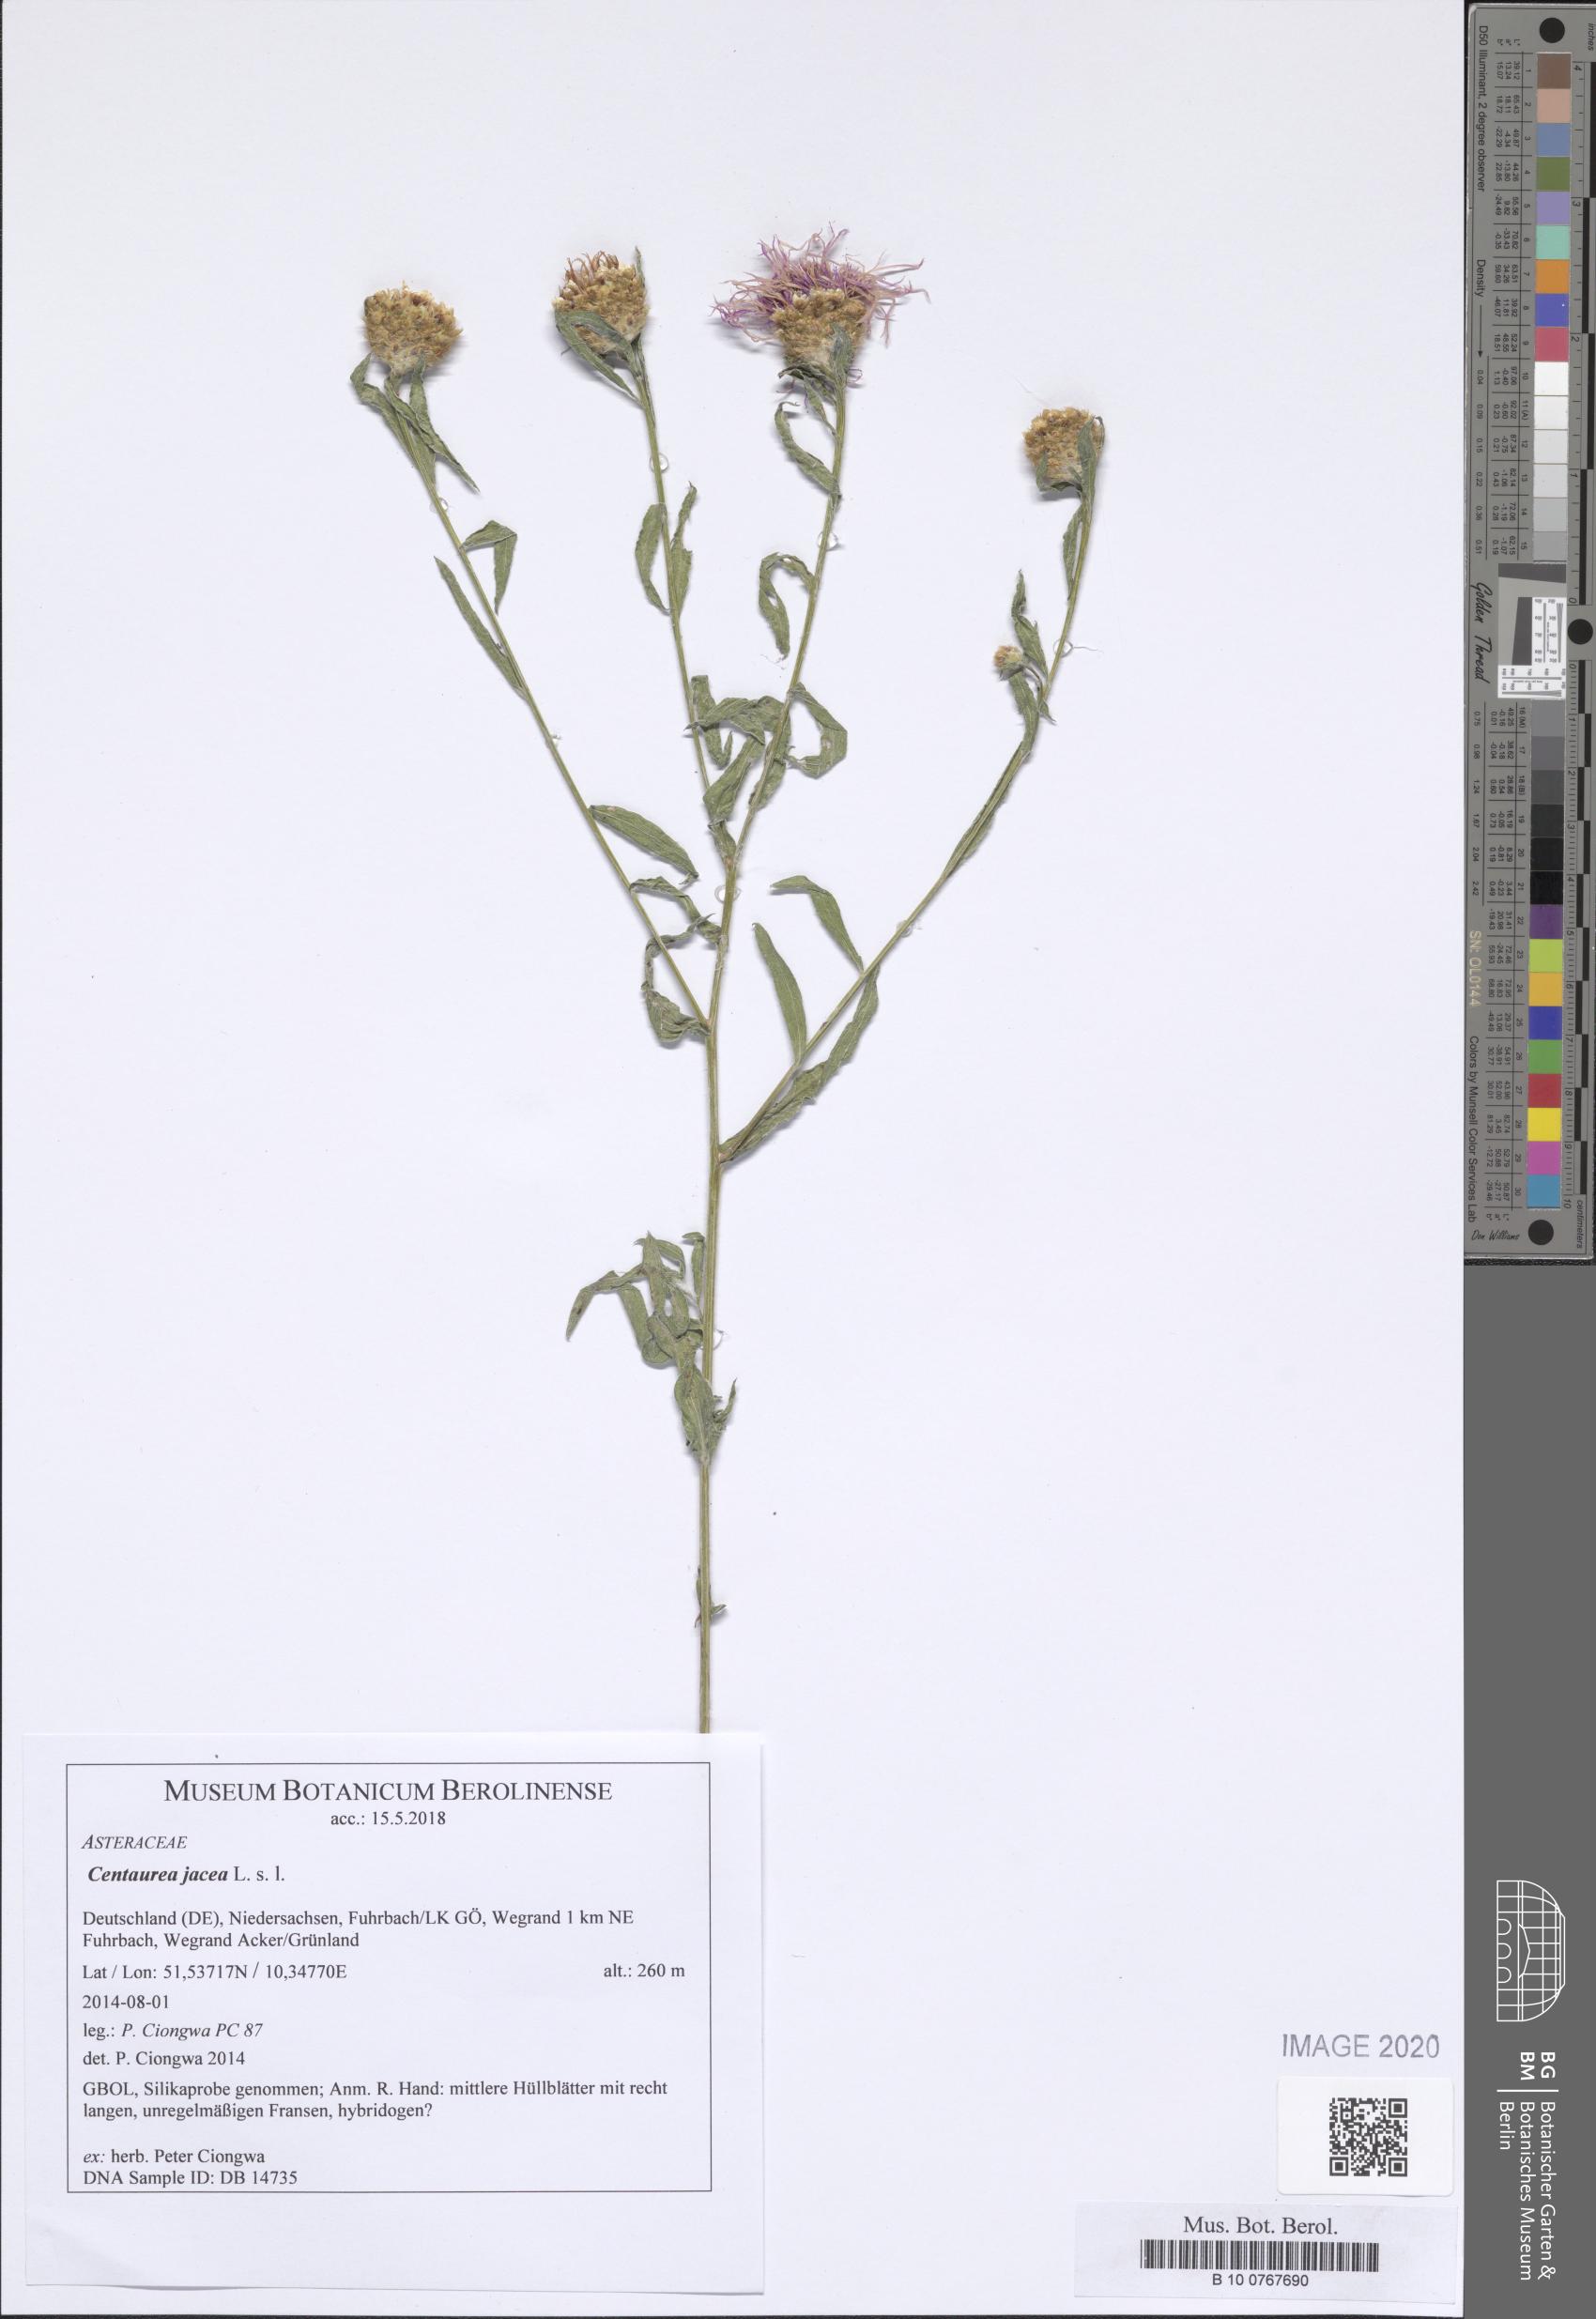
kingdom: Plantae
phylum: Tracheophyta
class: Magnoliopsida
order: Asterales
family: Asteraceae
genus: Centaurea
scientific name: Centaurea jacea
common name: Brown knapweed
